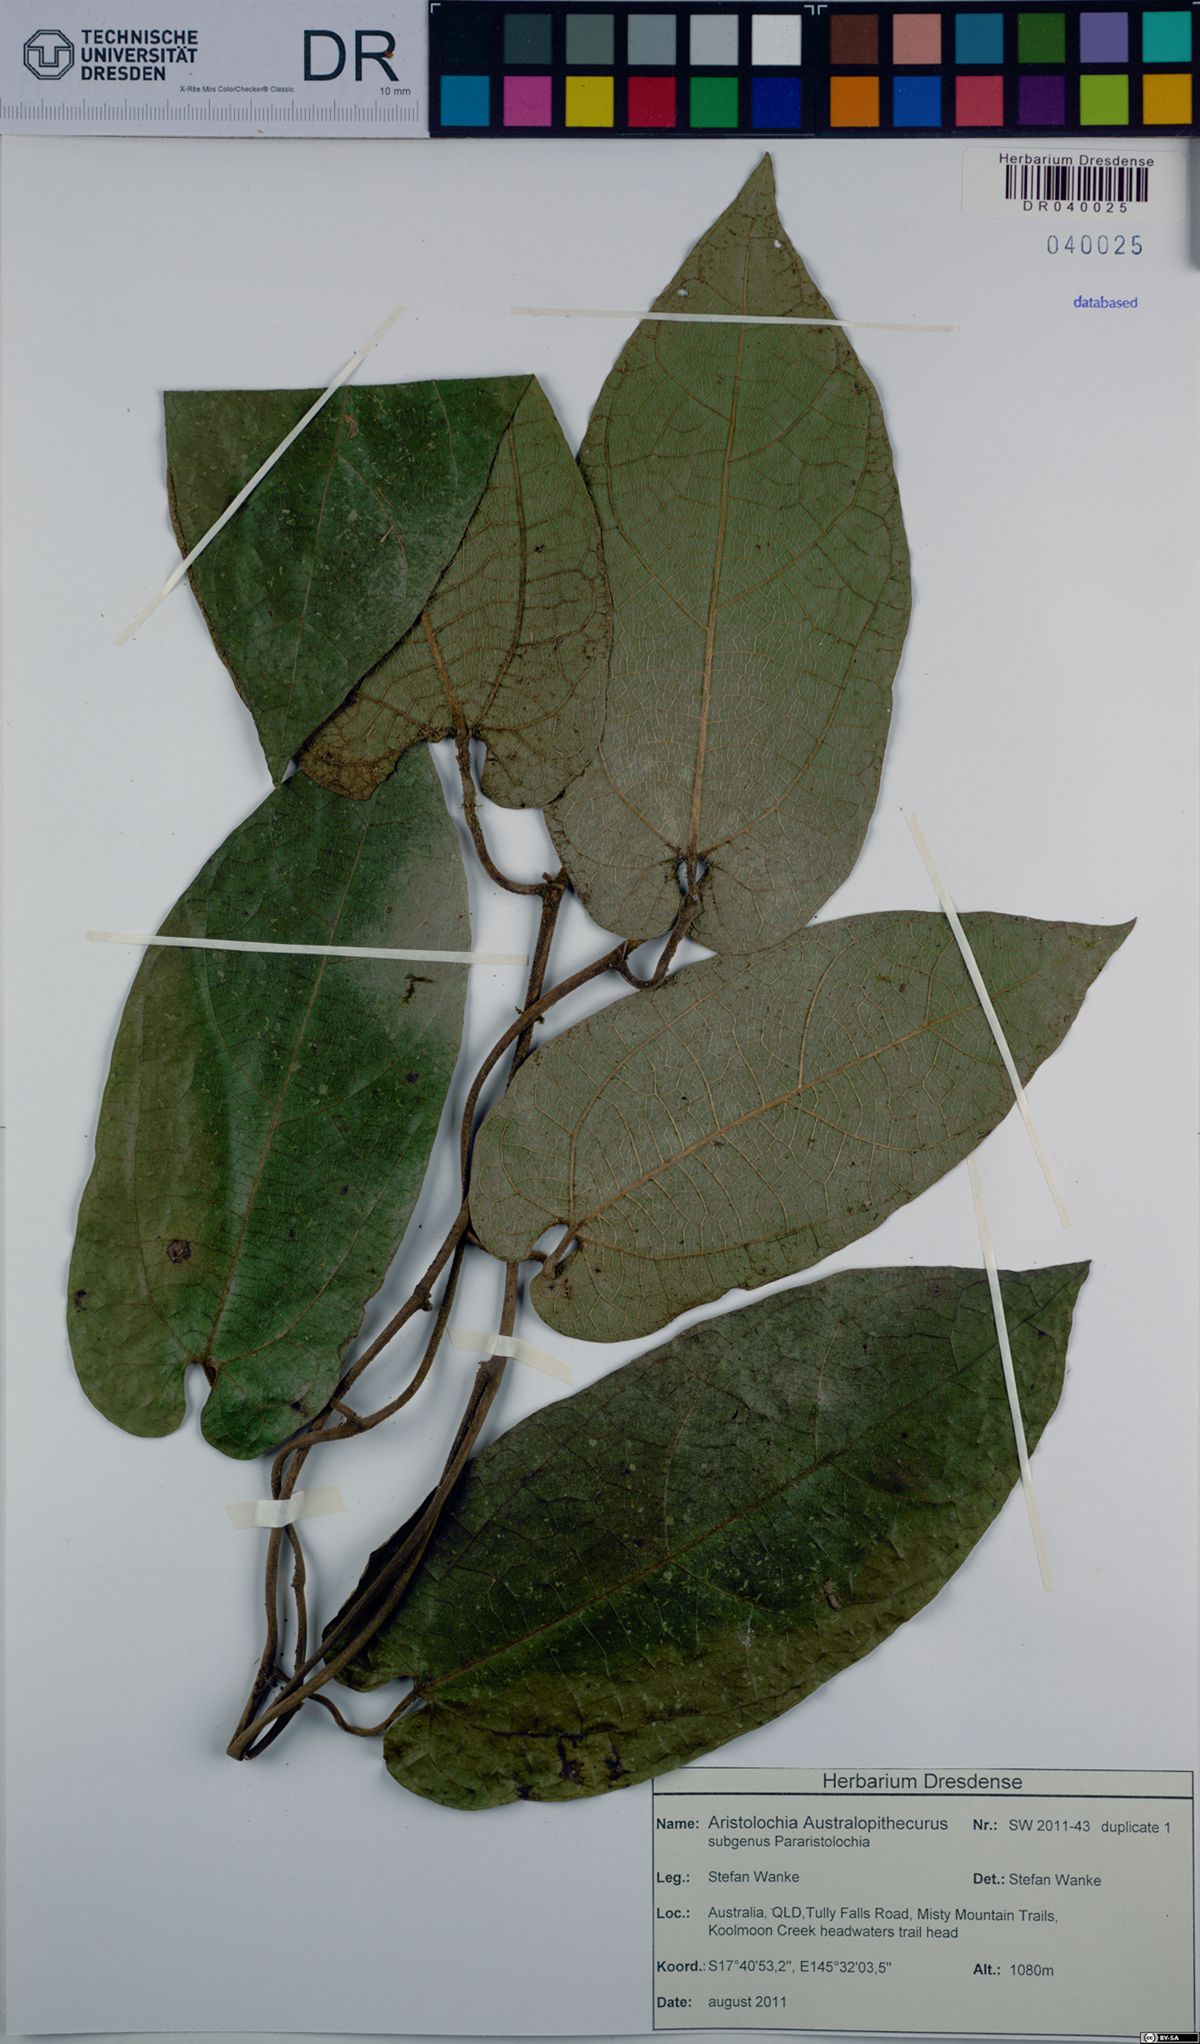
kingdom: Plantae
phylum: Tracheophyta
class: Magnoliopsida
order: Piperales
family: Aristolochiaceae
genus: Aristolochia
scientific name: Aristolochia australopithecurus
